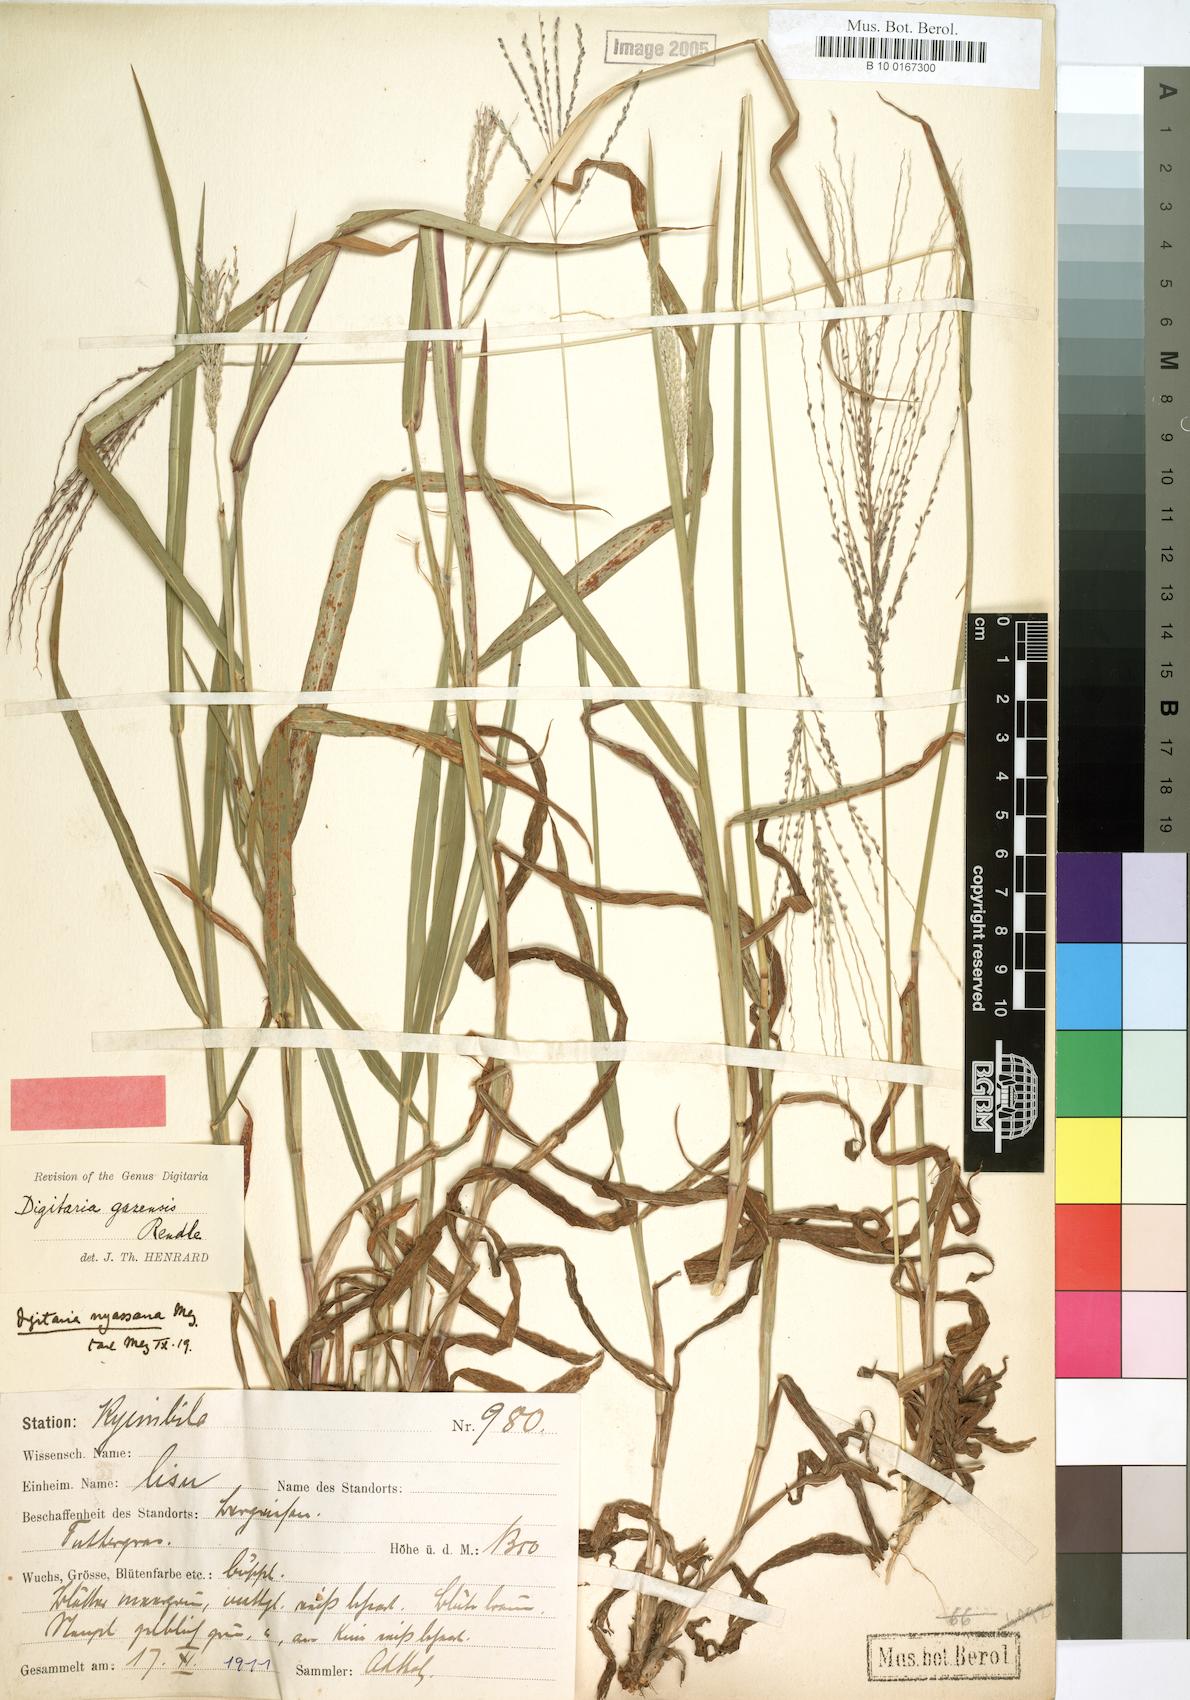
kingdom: Plantae
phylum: Tracheophyta
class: Liliopsida
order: Poales
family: Poaceae
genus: Digitaria
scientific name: Digitaria gazensis
